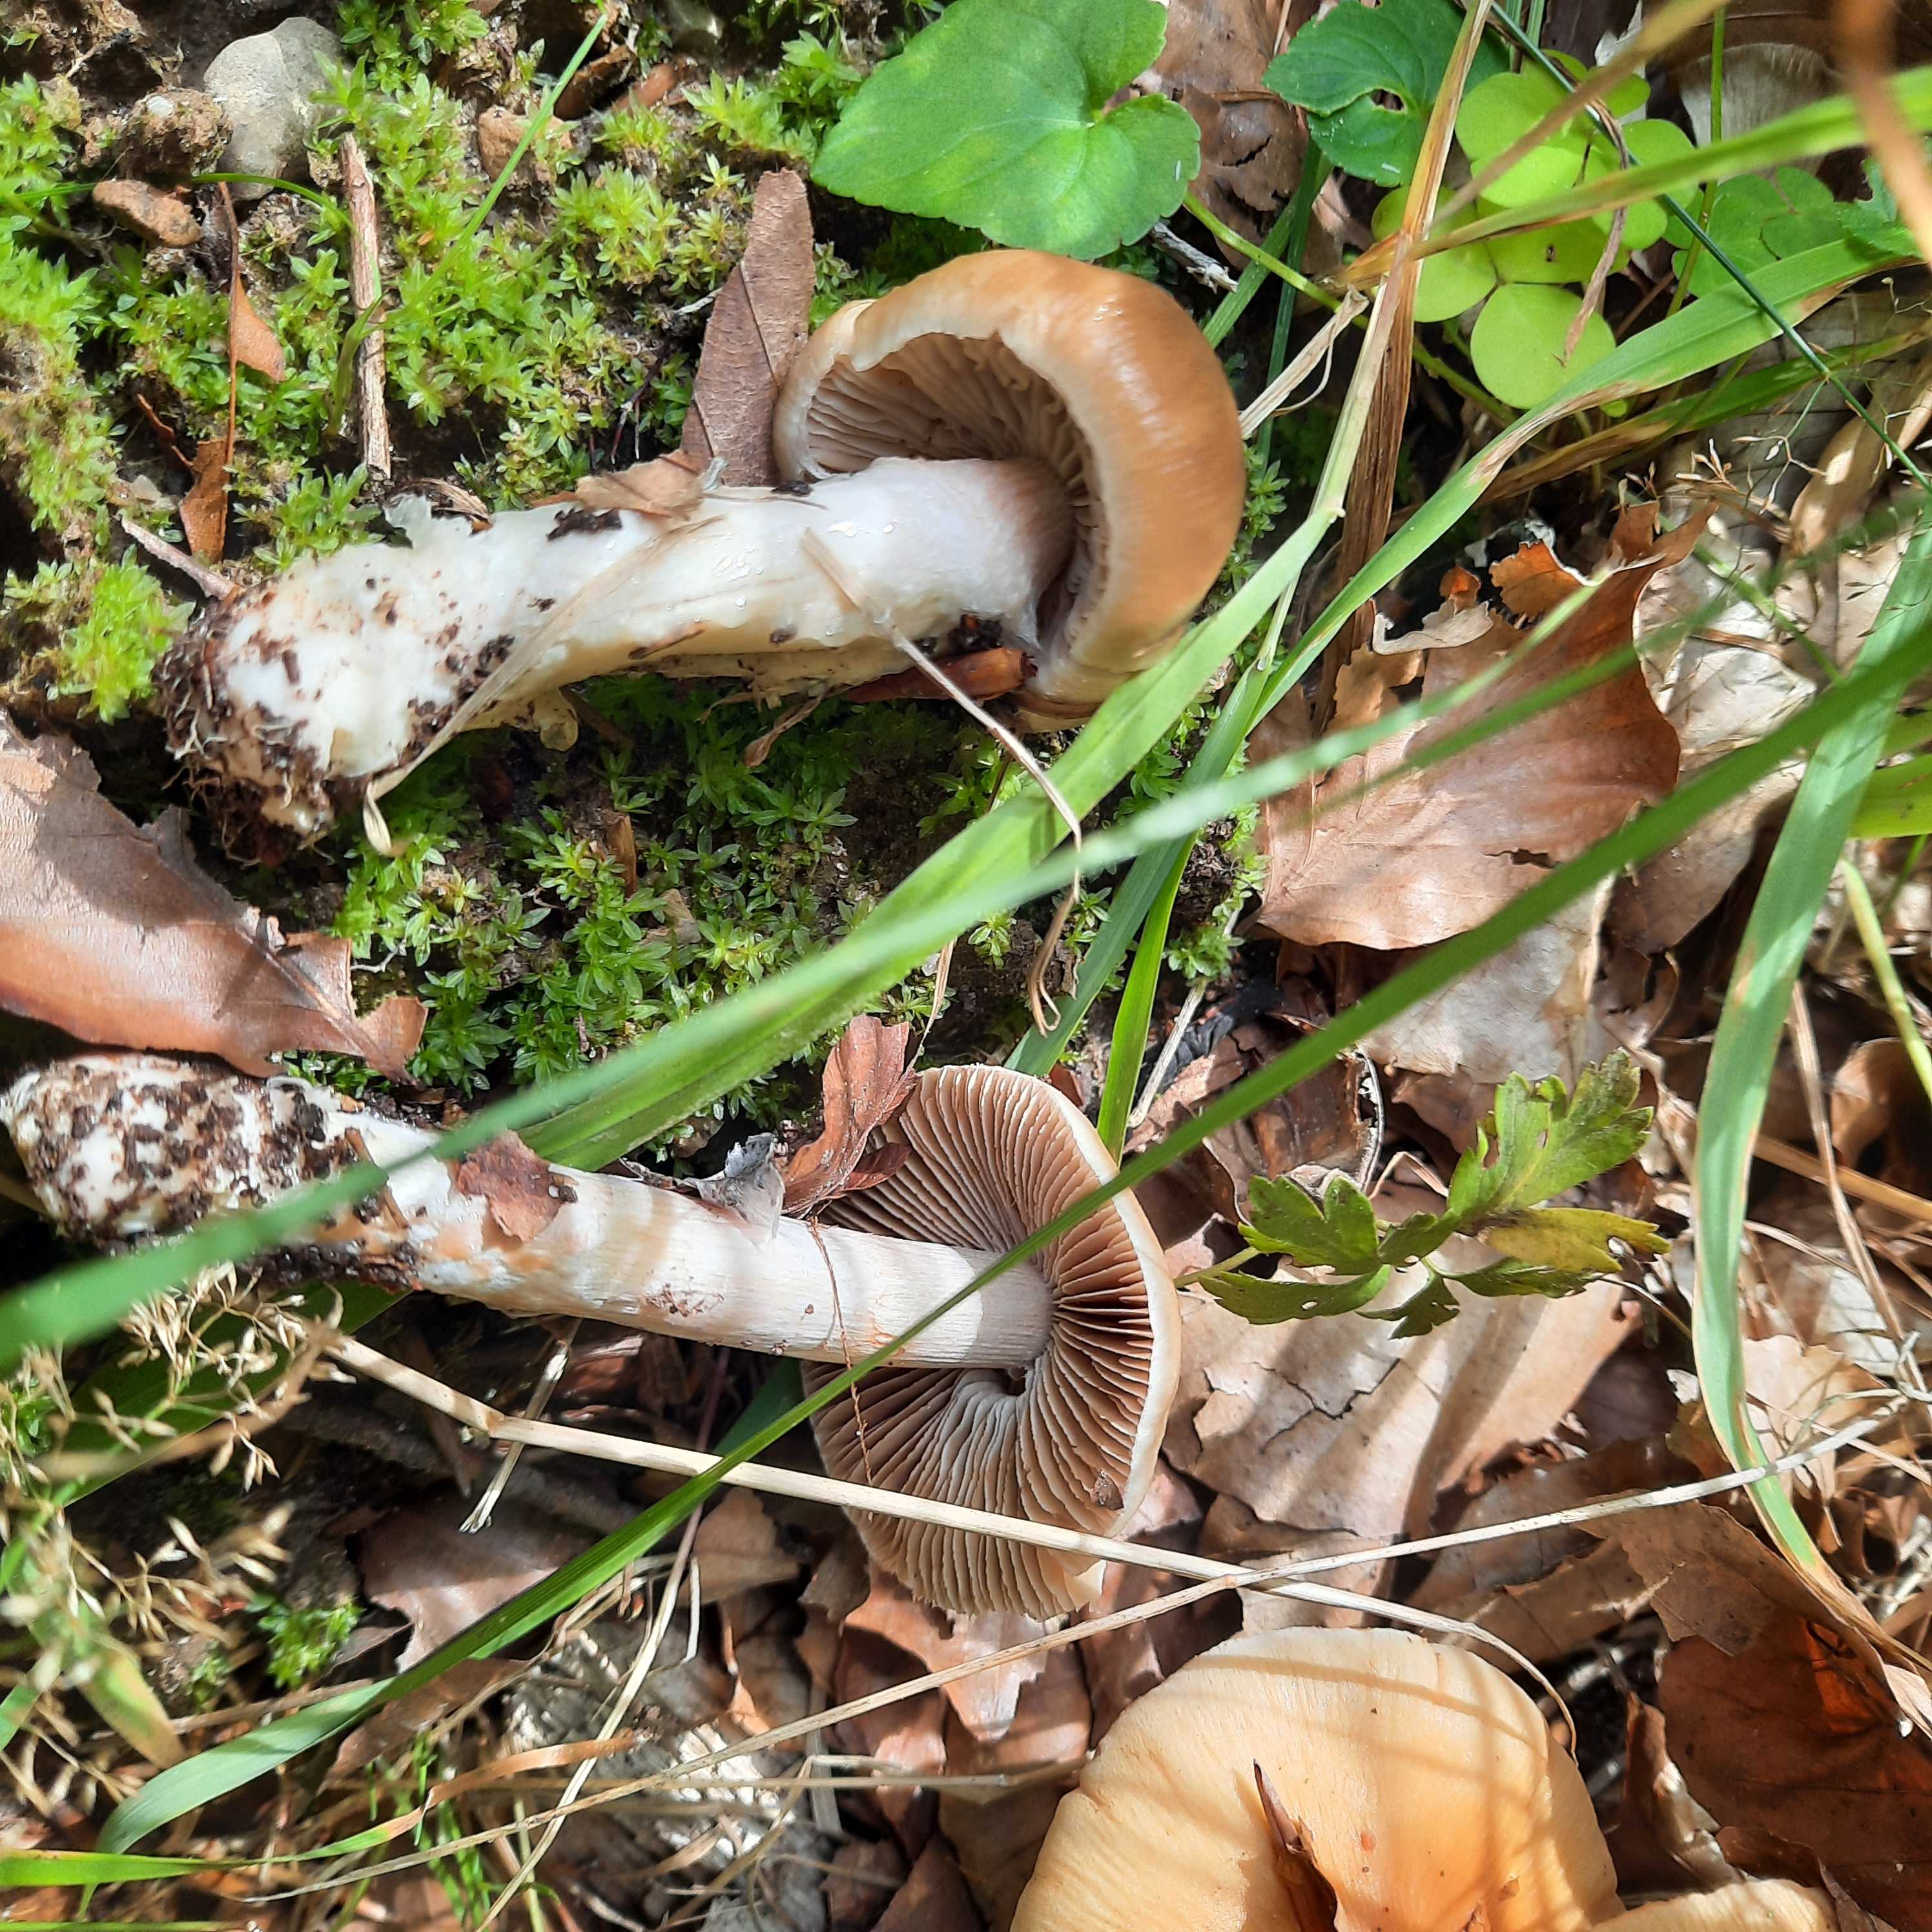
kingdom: Fungi
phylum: Basidiomycota
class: Agaricomycetes
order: Agaricales
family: Cortinariaceae
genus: Cortinarius
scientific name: Cortinarius
